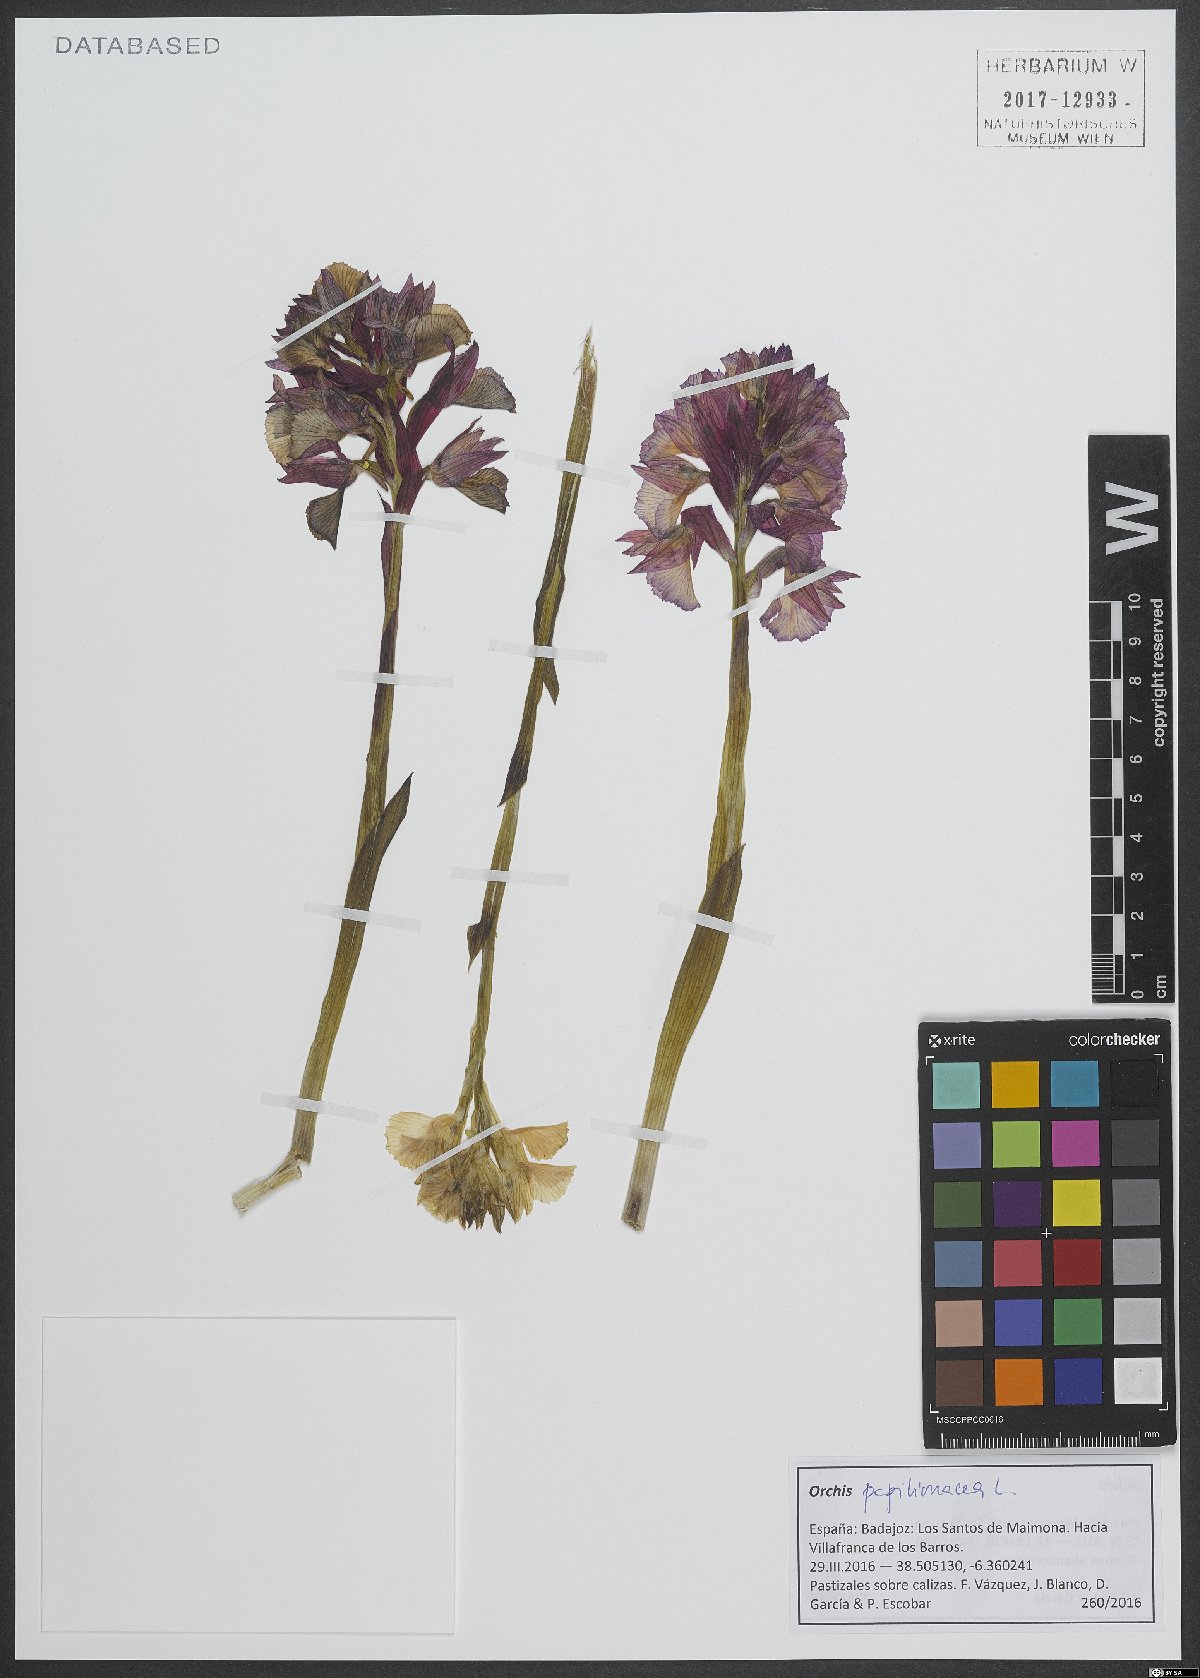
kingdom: Plantae
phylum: Tracheophyta
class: Liliopsida
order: Asparagales
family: Orchidaceae
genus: Anacamptis
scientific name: Anacamptis papilionacea
